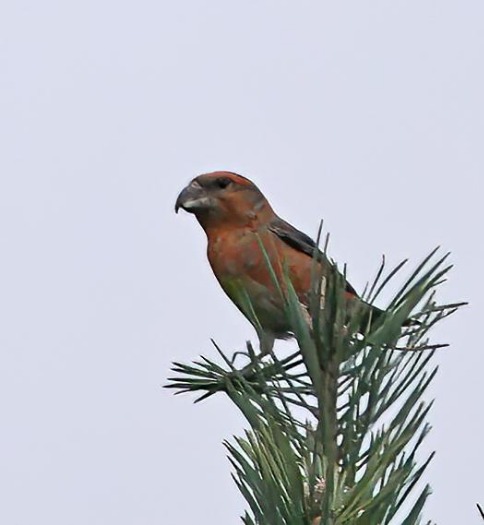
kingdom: Animalia
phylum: Chordata
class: Aves
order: Passeriformes
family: Fringillidae
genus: Loxia
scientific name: Loxia pytyopsittacus
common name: Stor korsnæb
